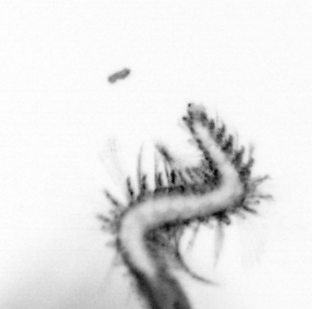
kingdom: Animalia
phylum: Annelida
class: Polychaeta
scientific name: Polychaeta
